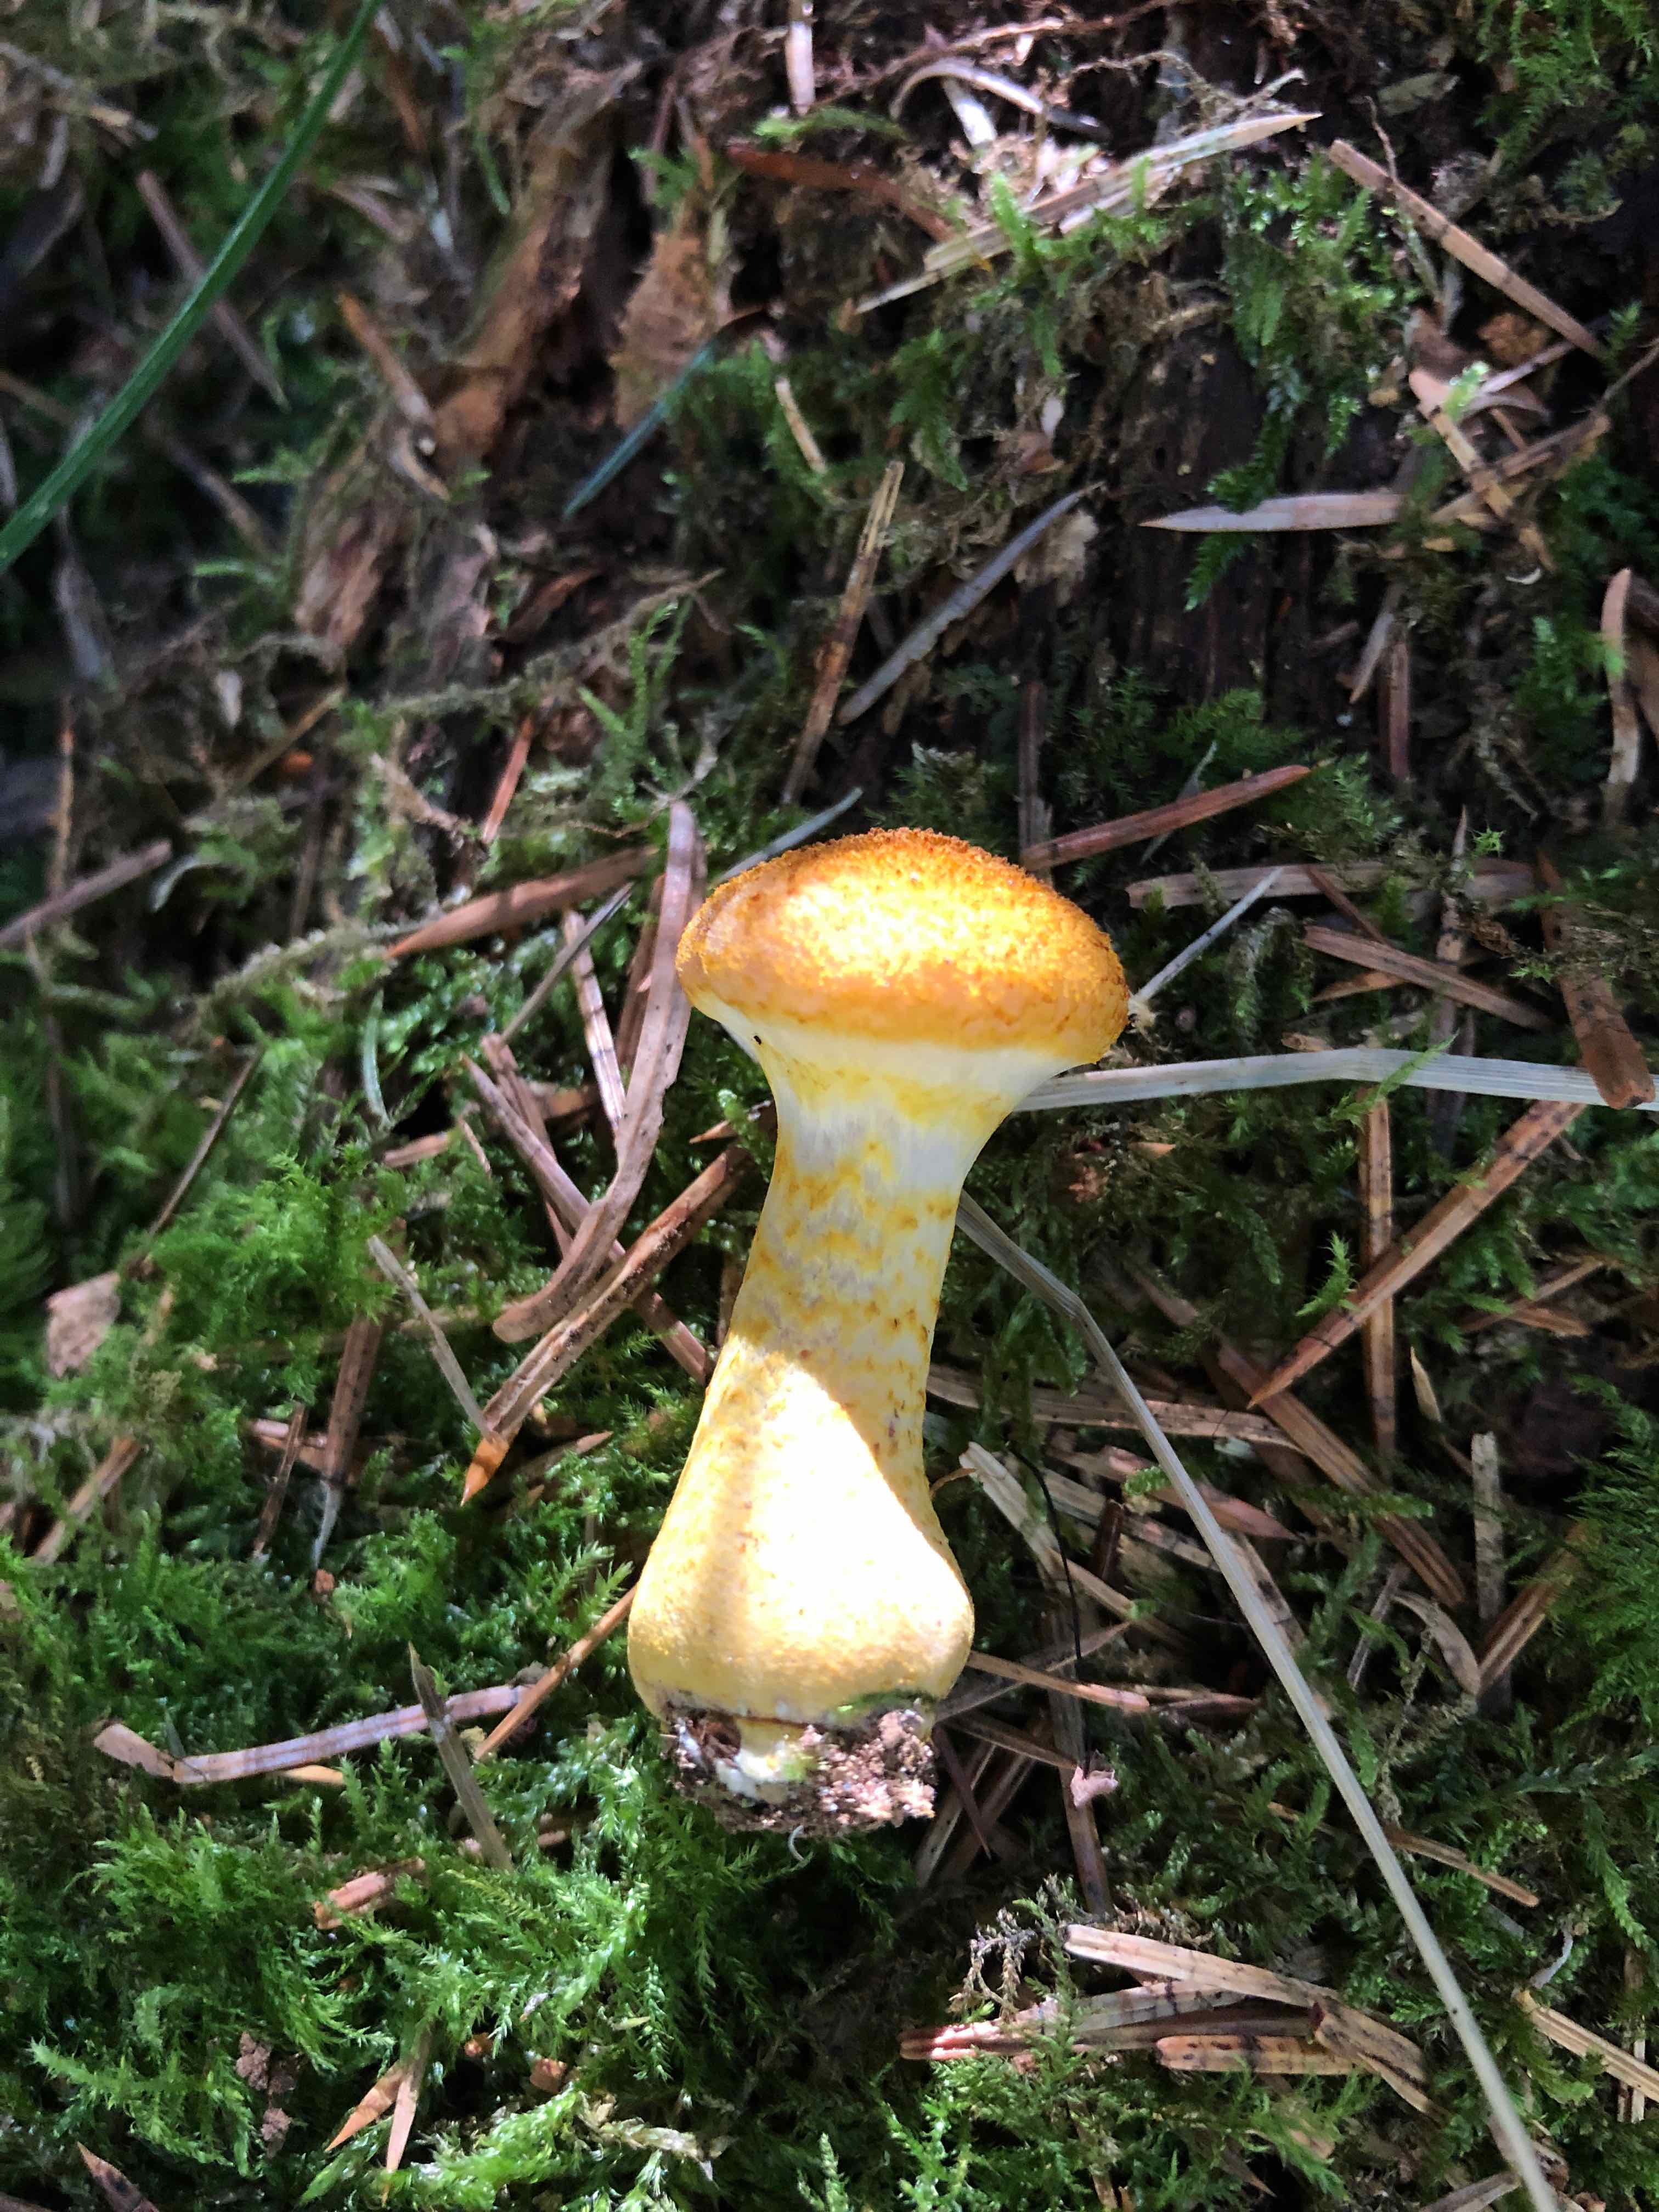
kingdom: Plantae
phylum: Bryophyta
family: Agaricomycetidae
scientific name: Agaricomycetidae
